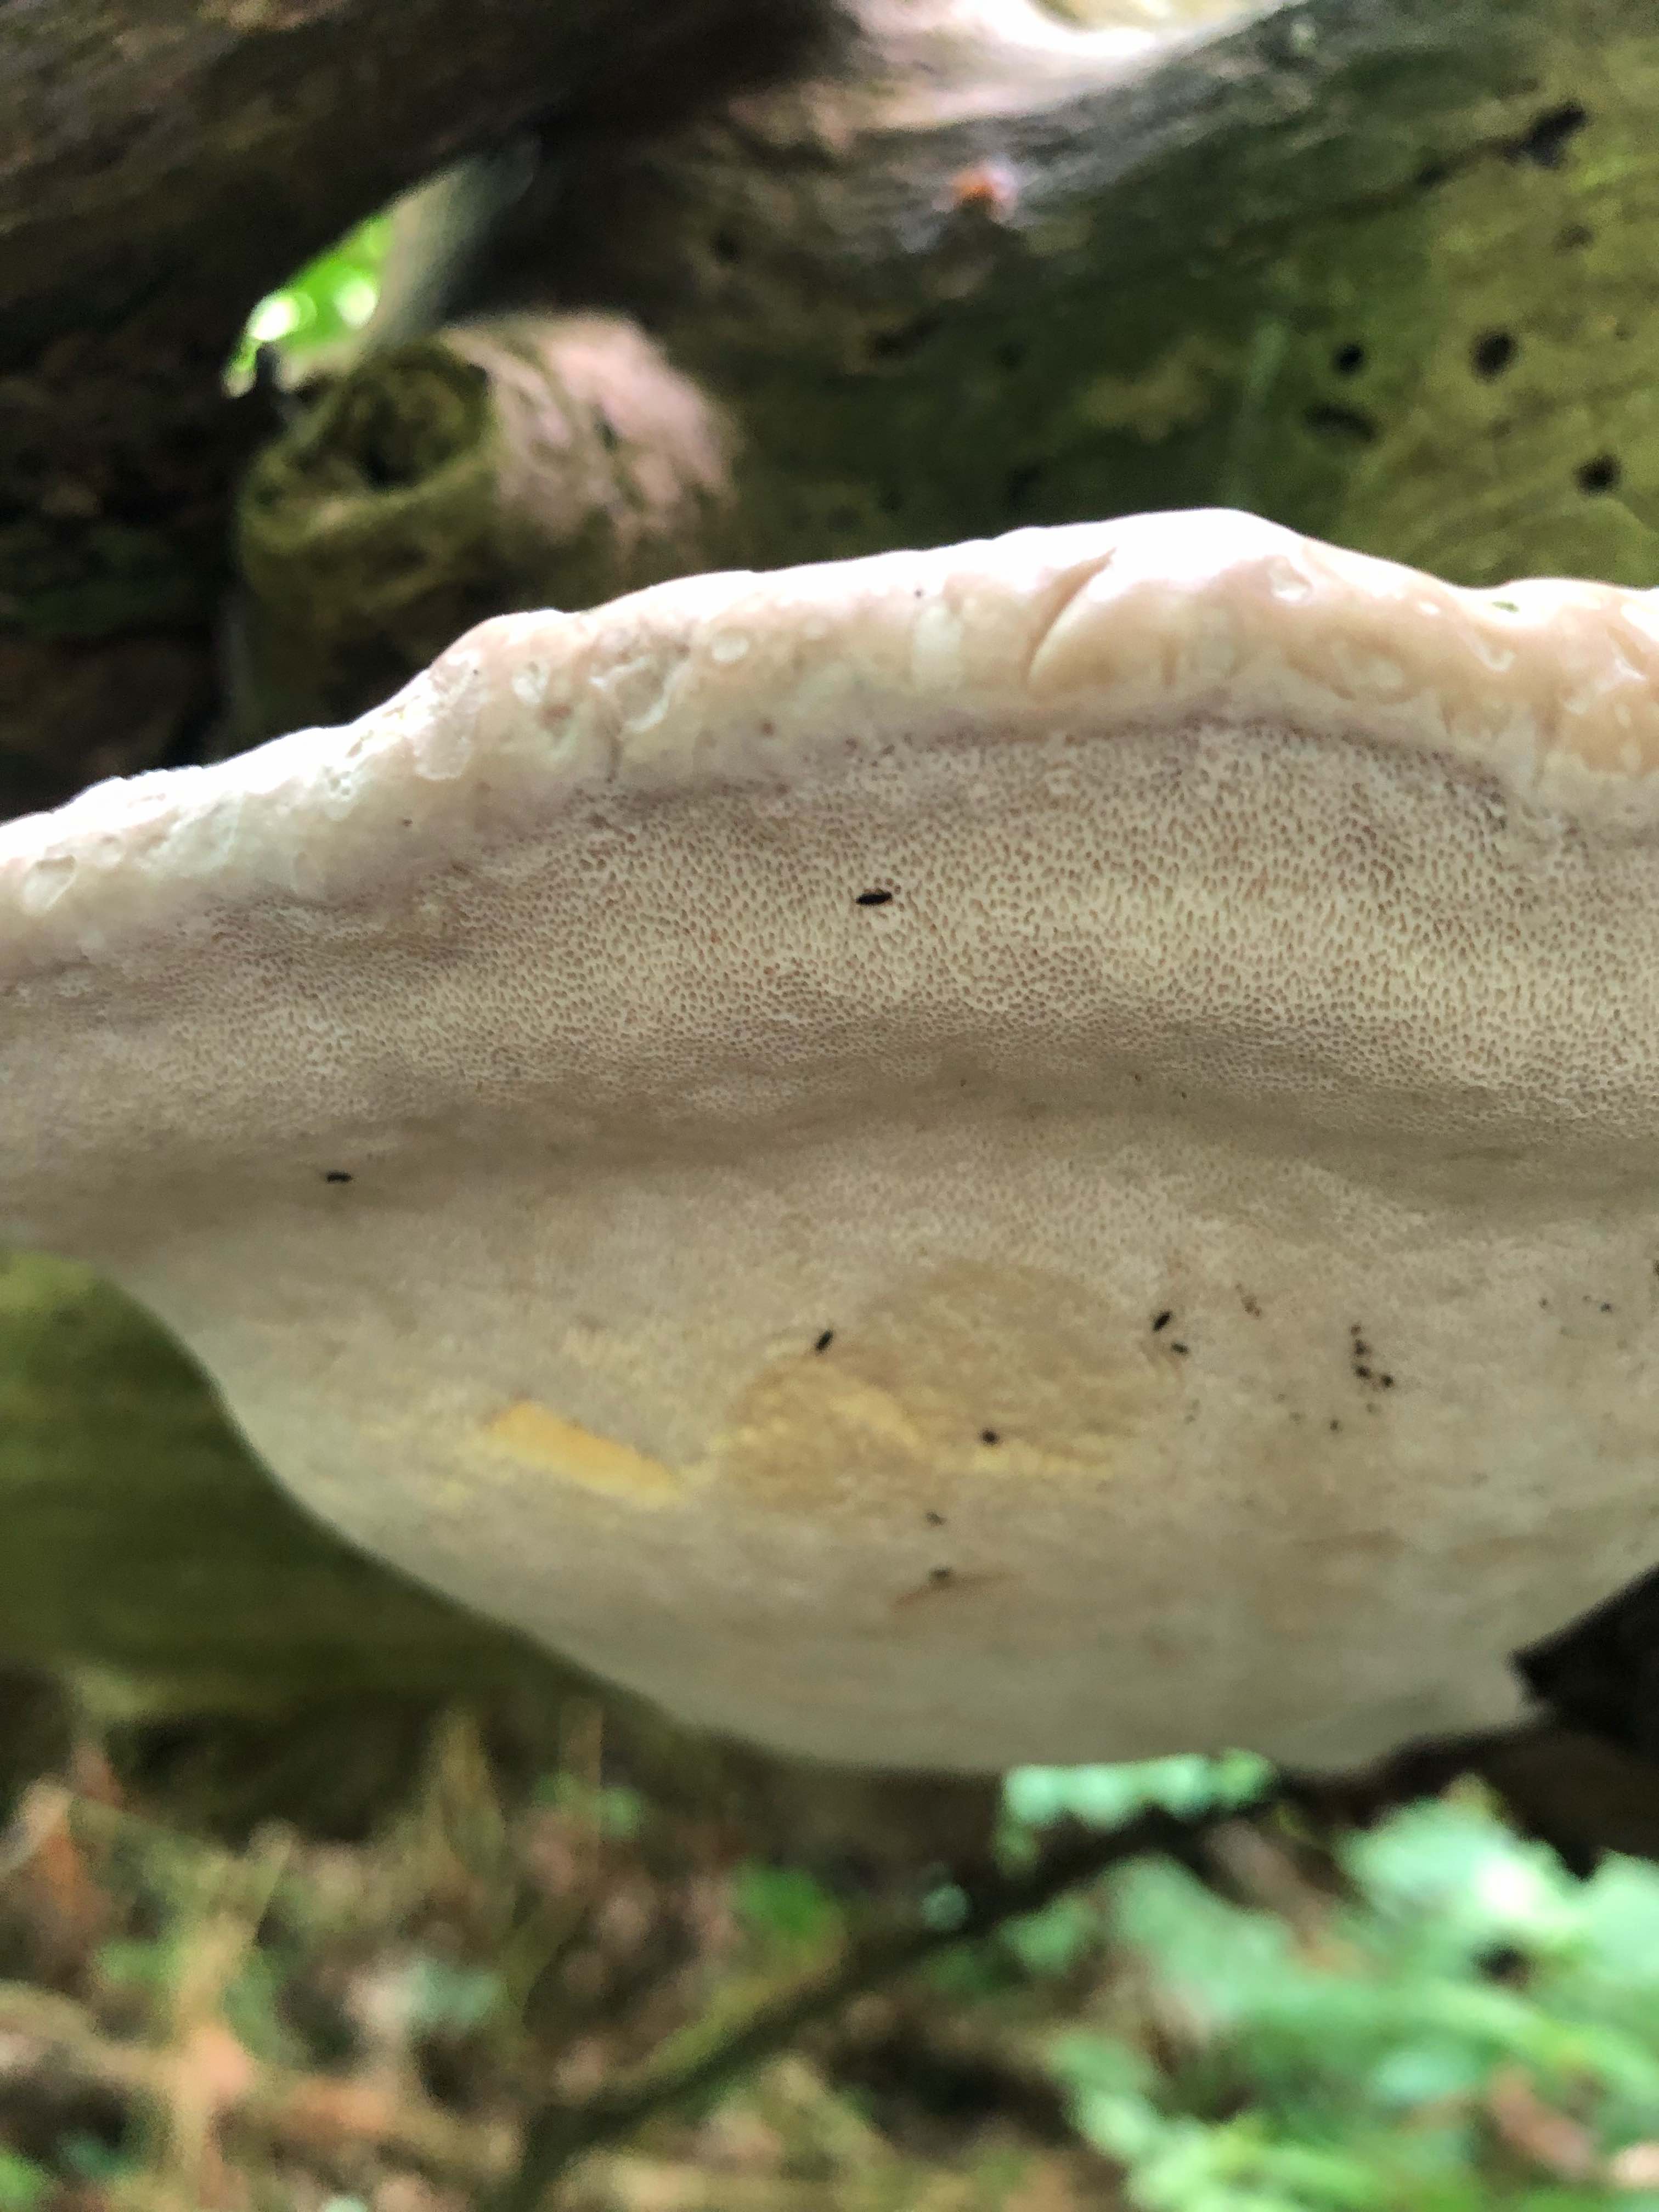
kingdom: Fungi
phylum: Basidiomycota
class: Agaricomycetes
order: Polyporales
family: Fomitopsidaceae
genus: Fomitopsis
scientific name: Fomitopsis pinicola
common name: randbæltet hovporesvamp
